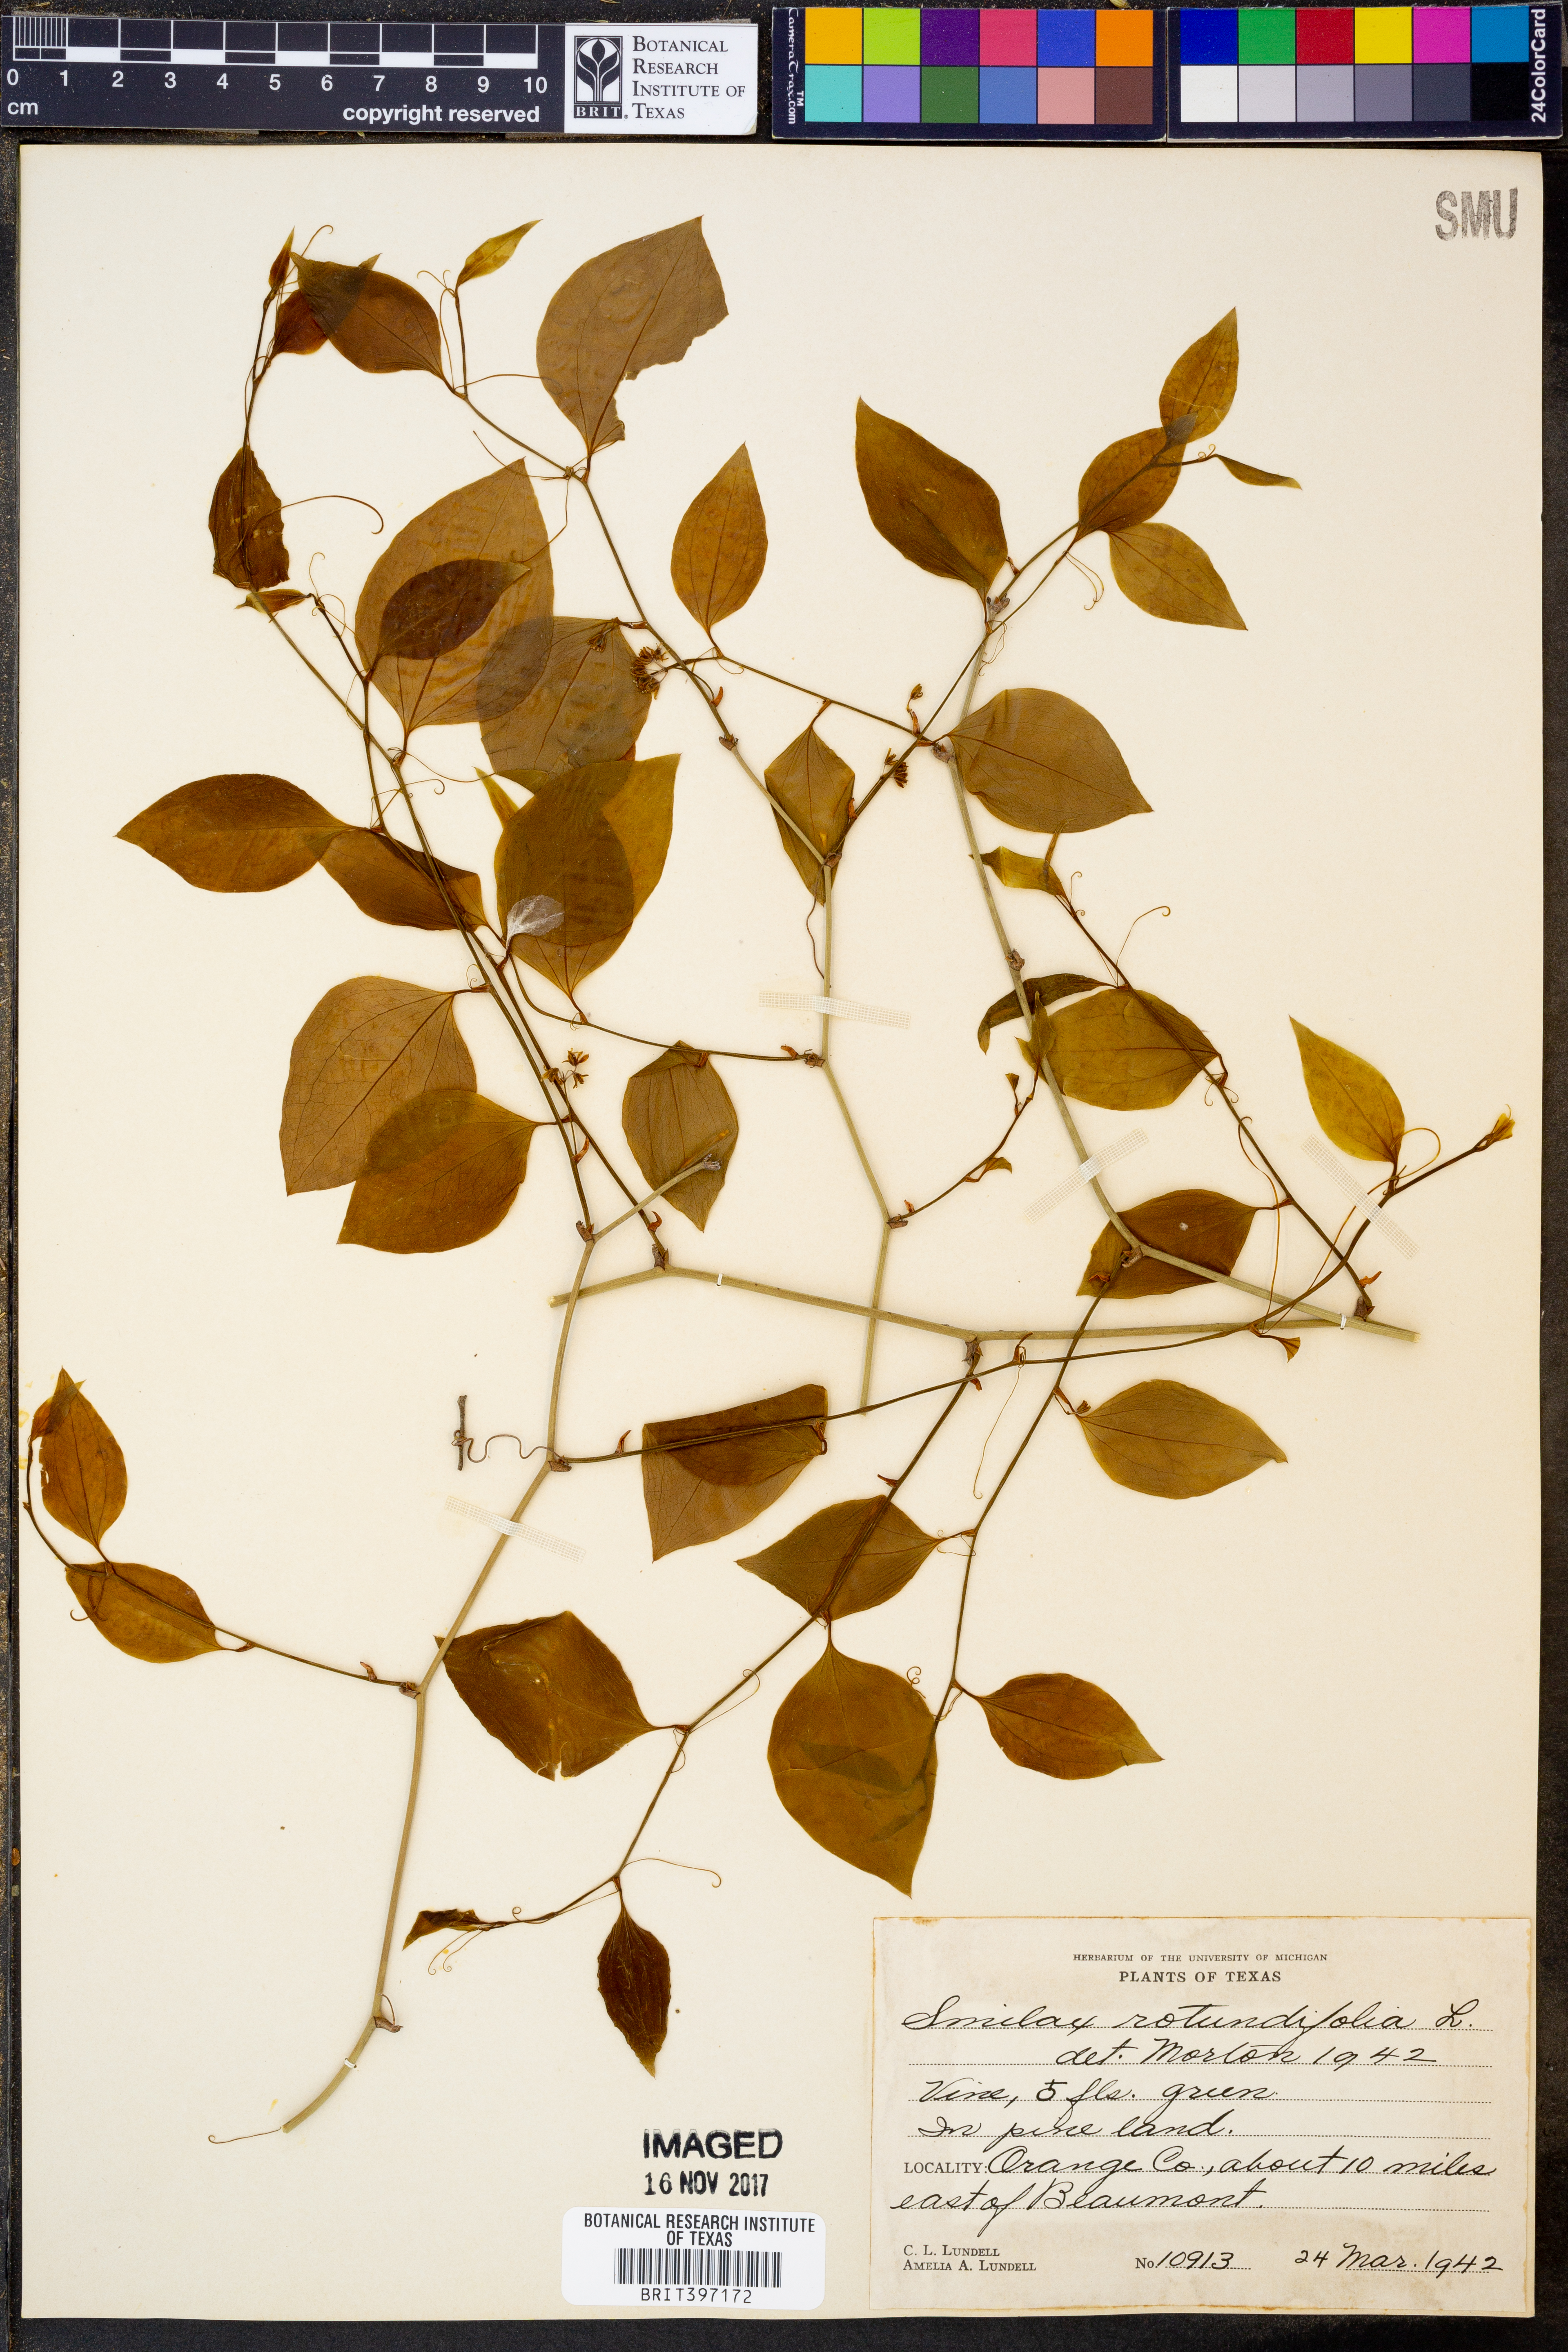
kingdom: Plantae
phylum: Tracheophyta
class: Liliopsida
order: Liliales
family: Smilacaceae
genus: Smilax
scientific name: Smilax rotundifolia
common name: Bullbriar
